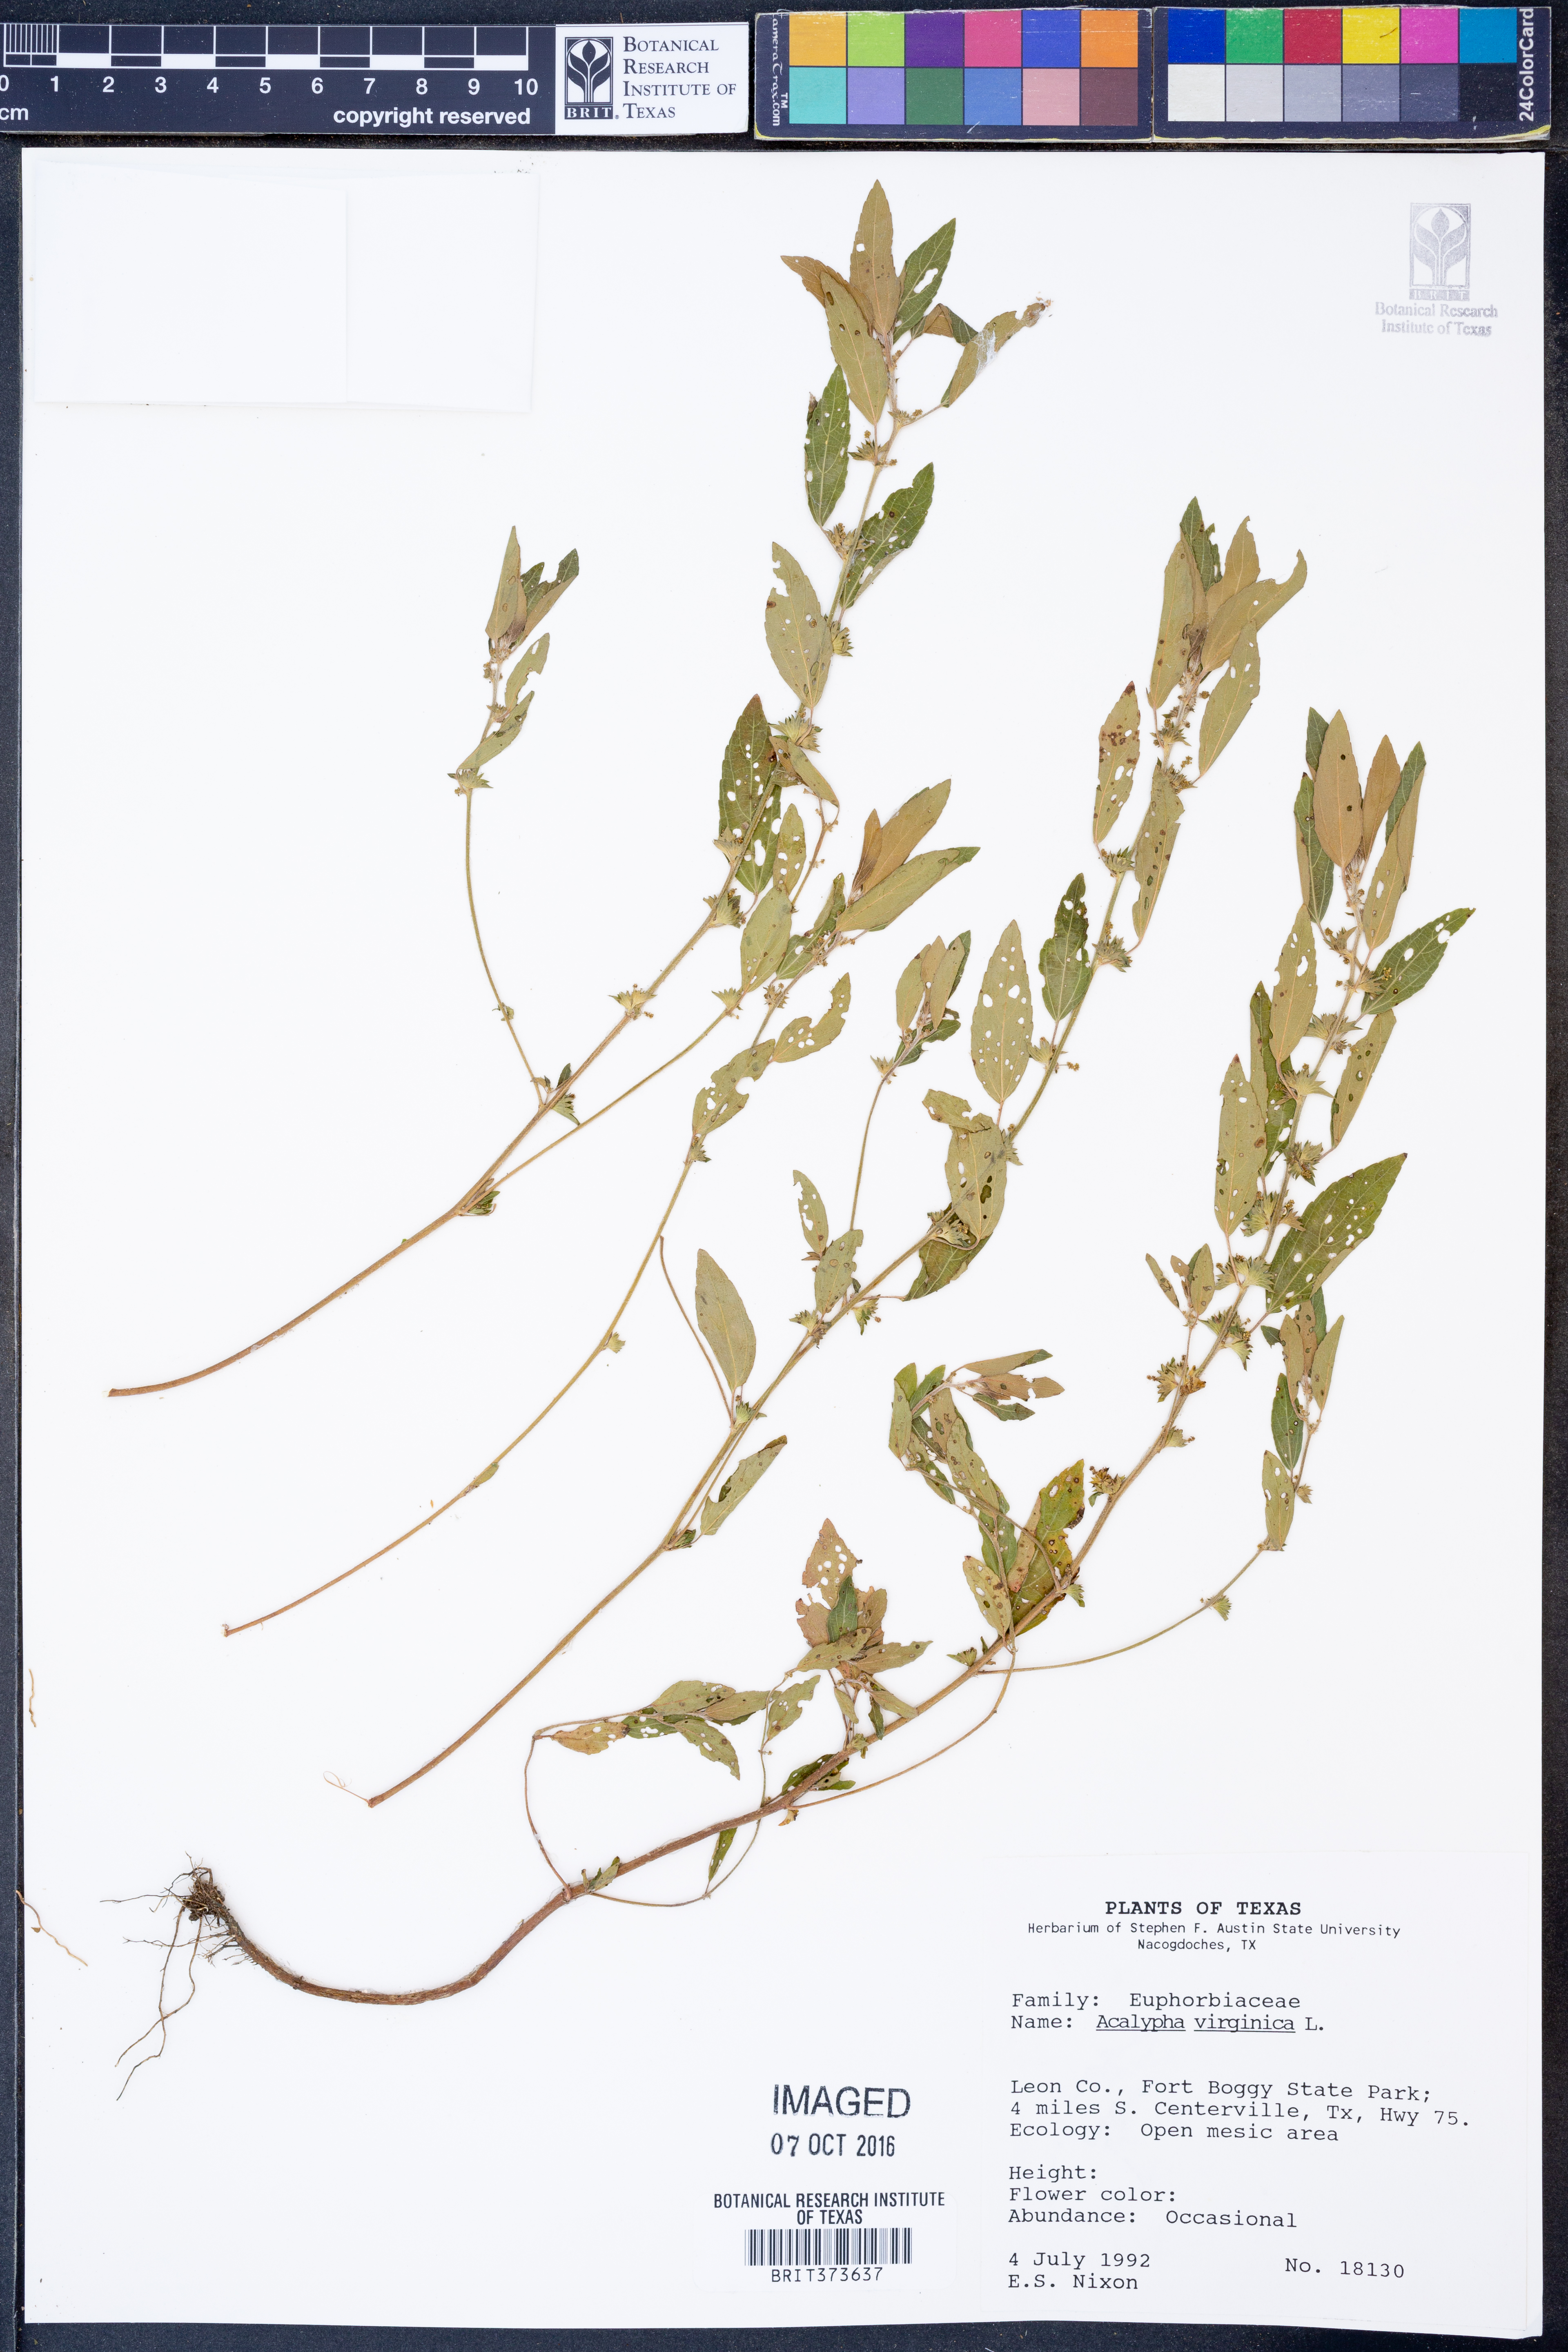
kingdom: Plantae
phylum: Tracheophyta
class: Magnoliopsida
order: Malpighiales
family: Euphorbiaceae
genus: Acalypha
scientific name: Acalypha virginica
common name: Virginia copperleaf
